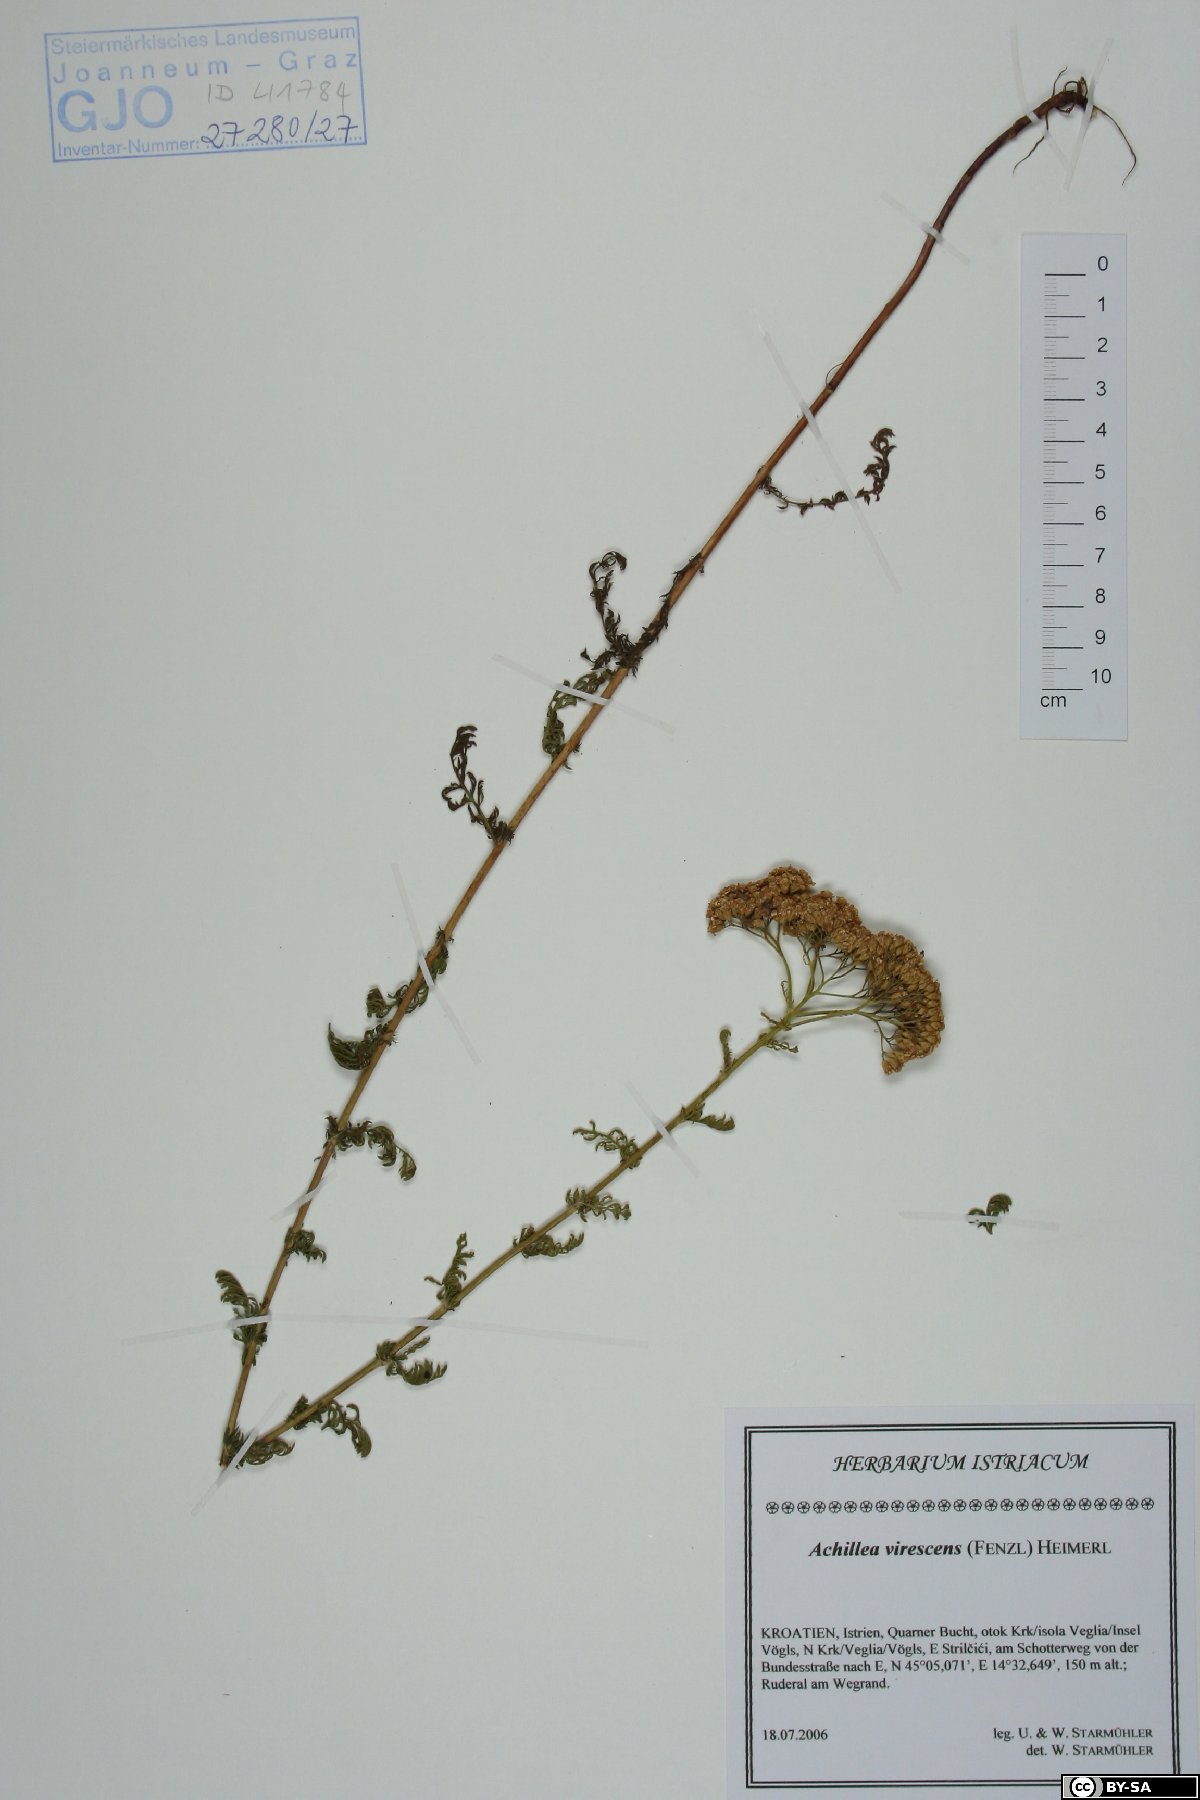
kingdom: Plantae
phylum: Tracheophyta
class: Magnoliopsida
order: Asterales
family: Asteraceae
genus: Achillea
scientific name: Achillea virescens
